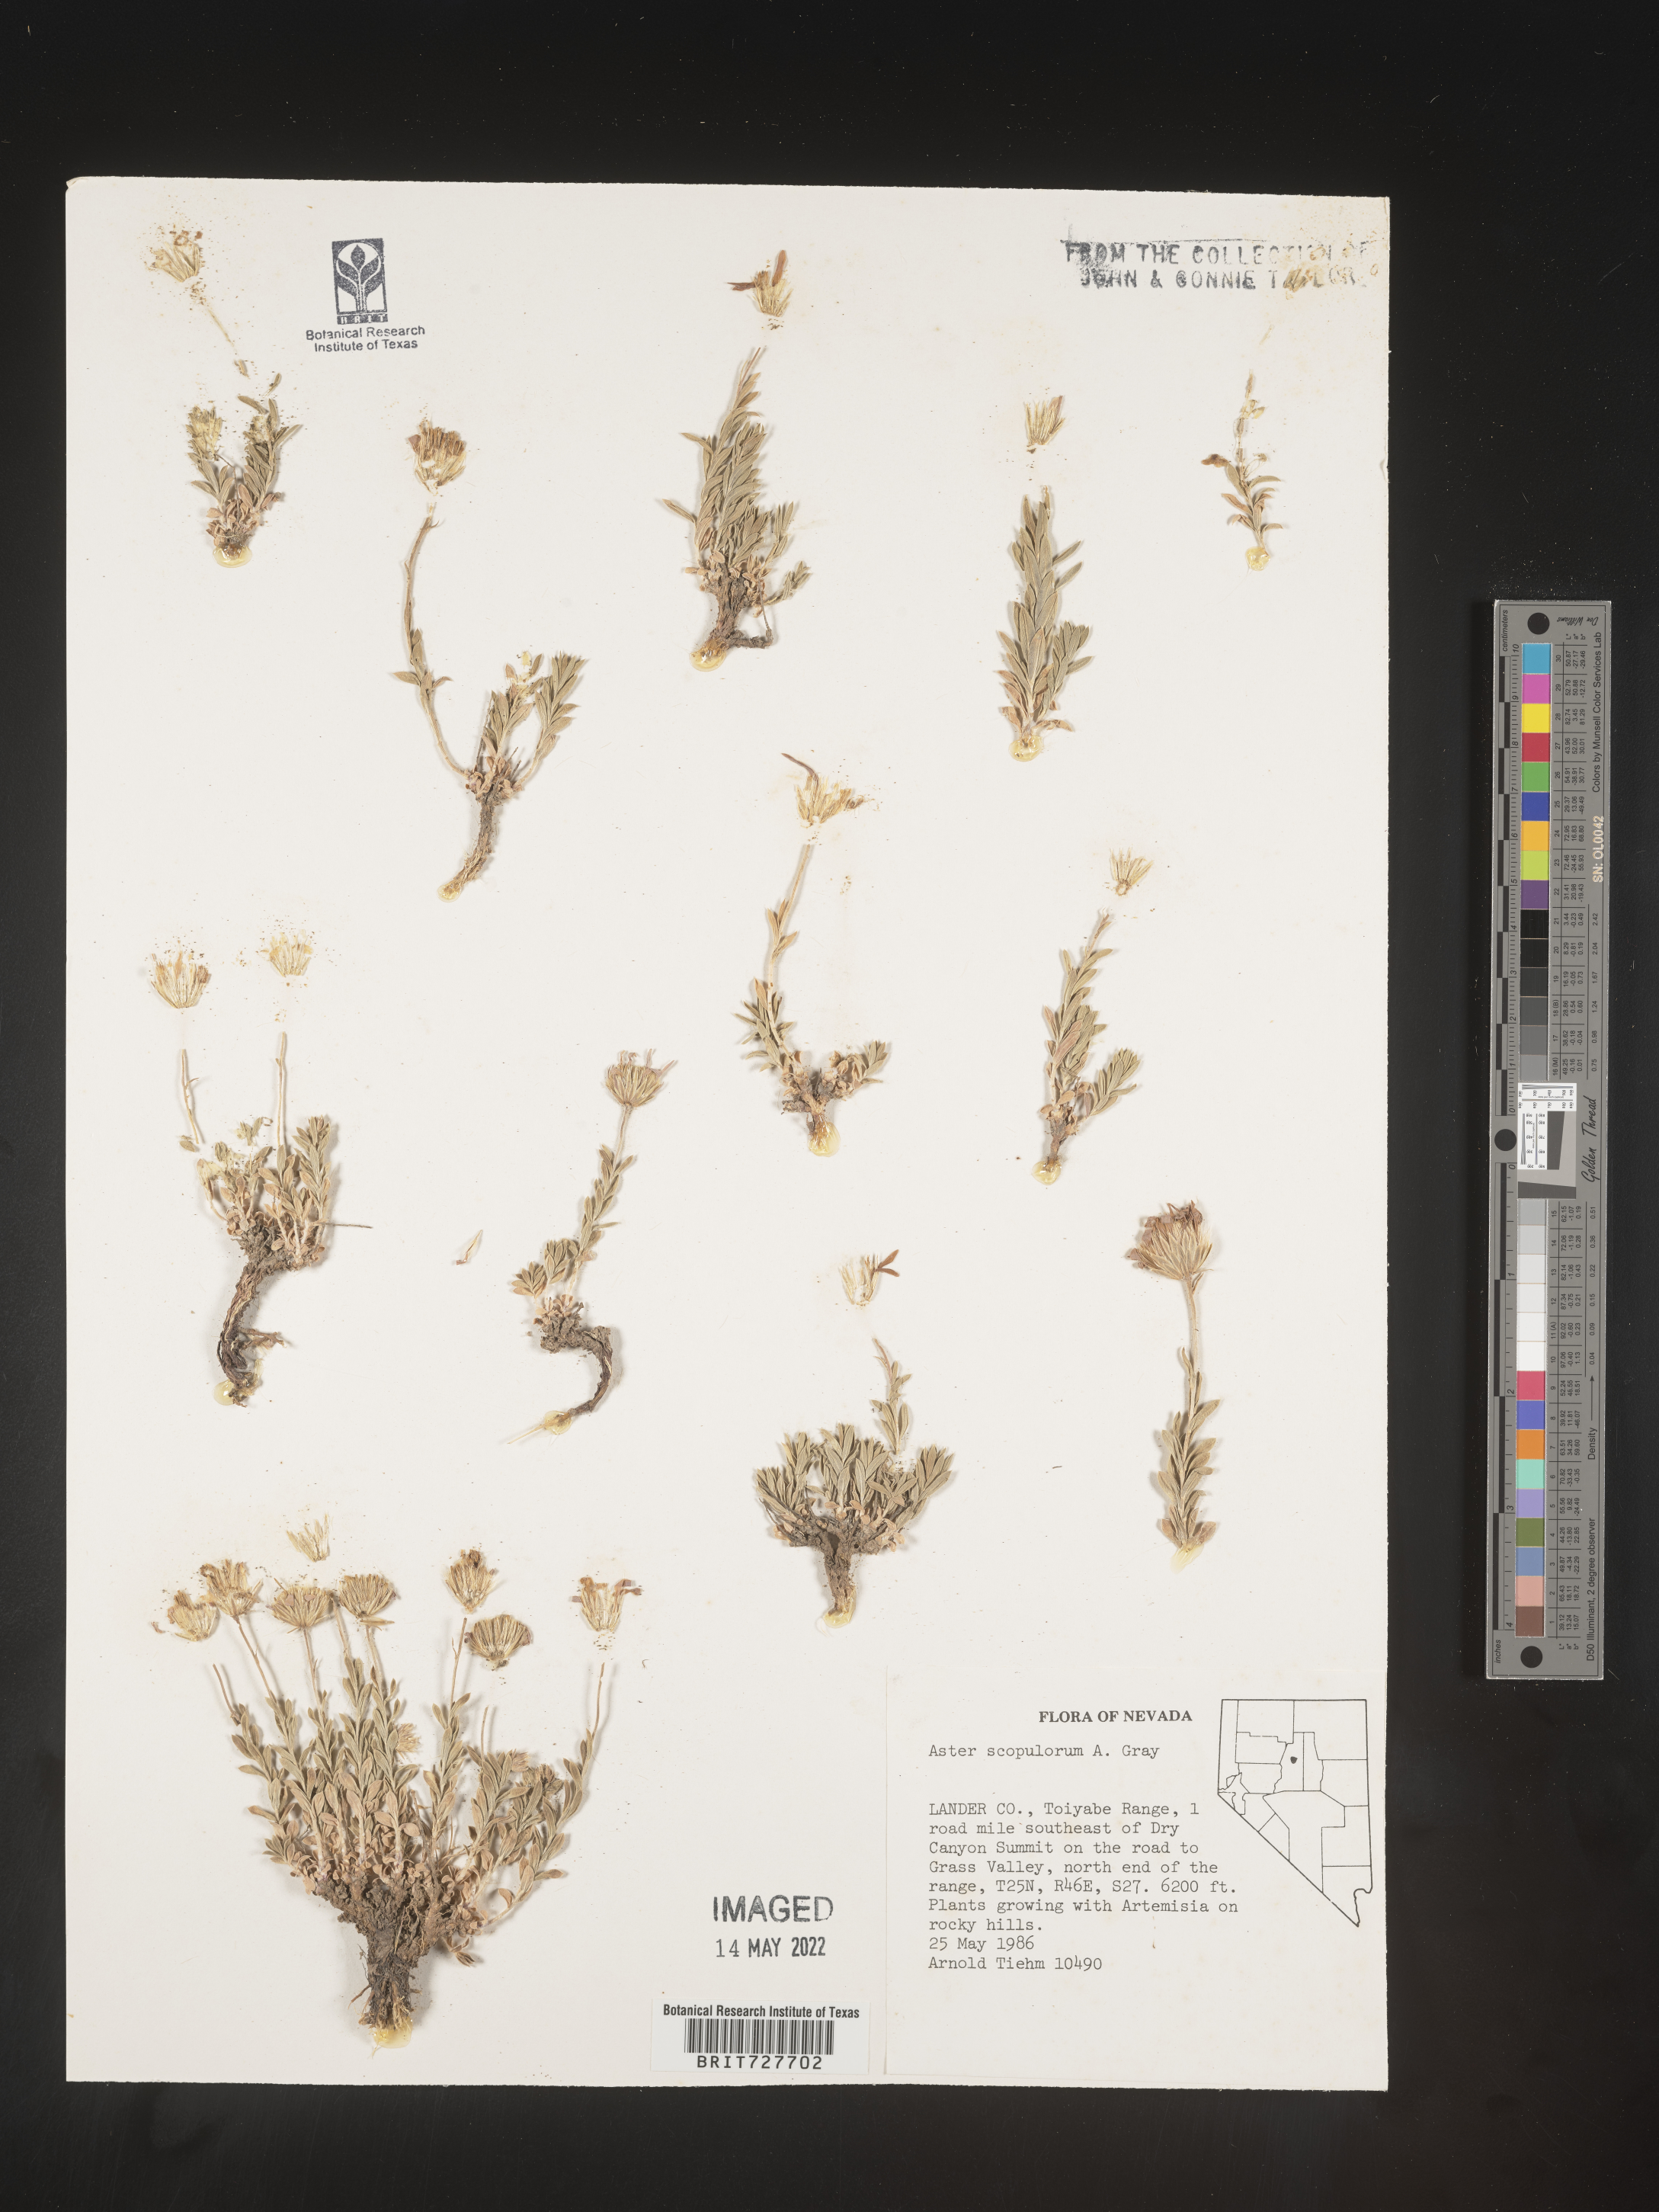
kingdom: Plantae
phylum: Tracheophyta
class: Magnoliopsida
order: Asterales
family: Asteraceae
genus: Ionactis
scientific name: Ionactis alpina
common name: Crag aster
